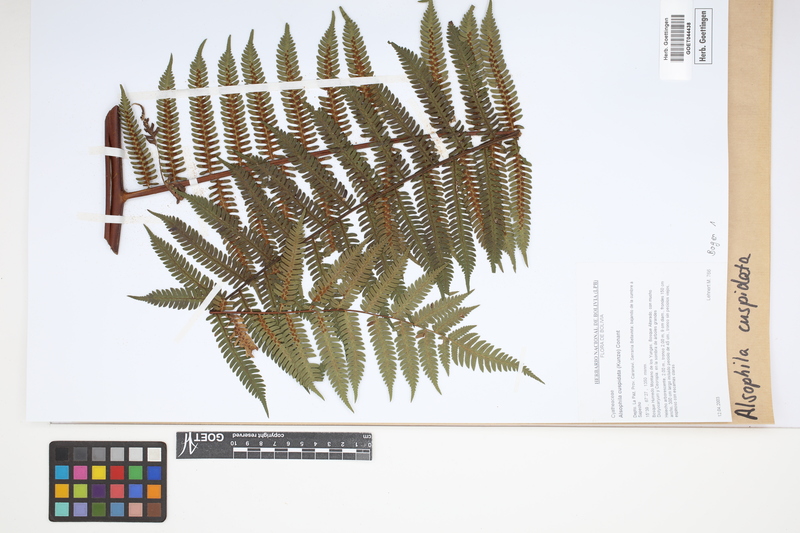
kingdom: Plantae
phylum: Tracheophyta
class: Polypodiopsida
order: Cyatheales
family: Cyatheaceae
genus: Alsophila
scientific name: Alsophila cuspidata
